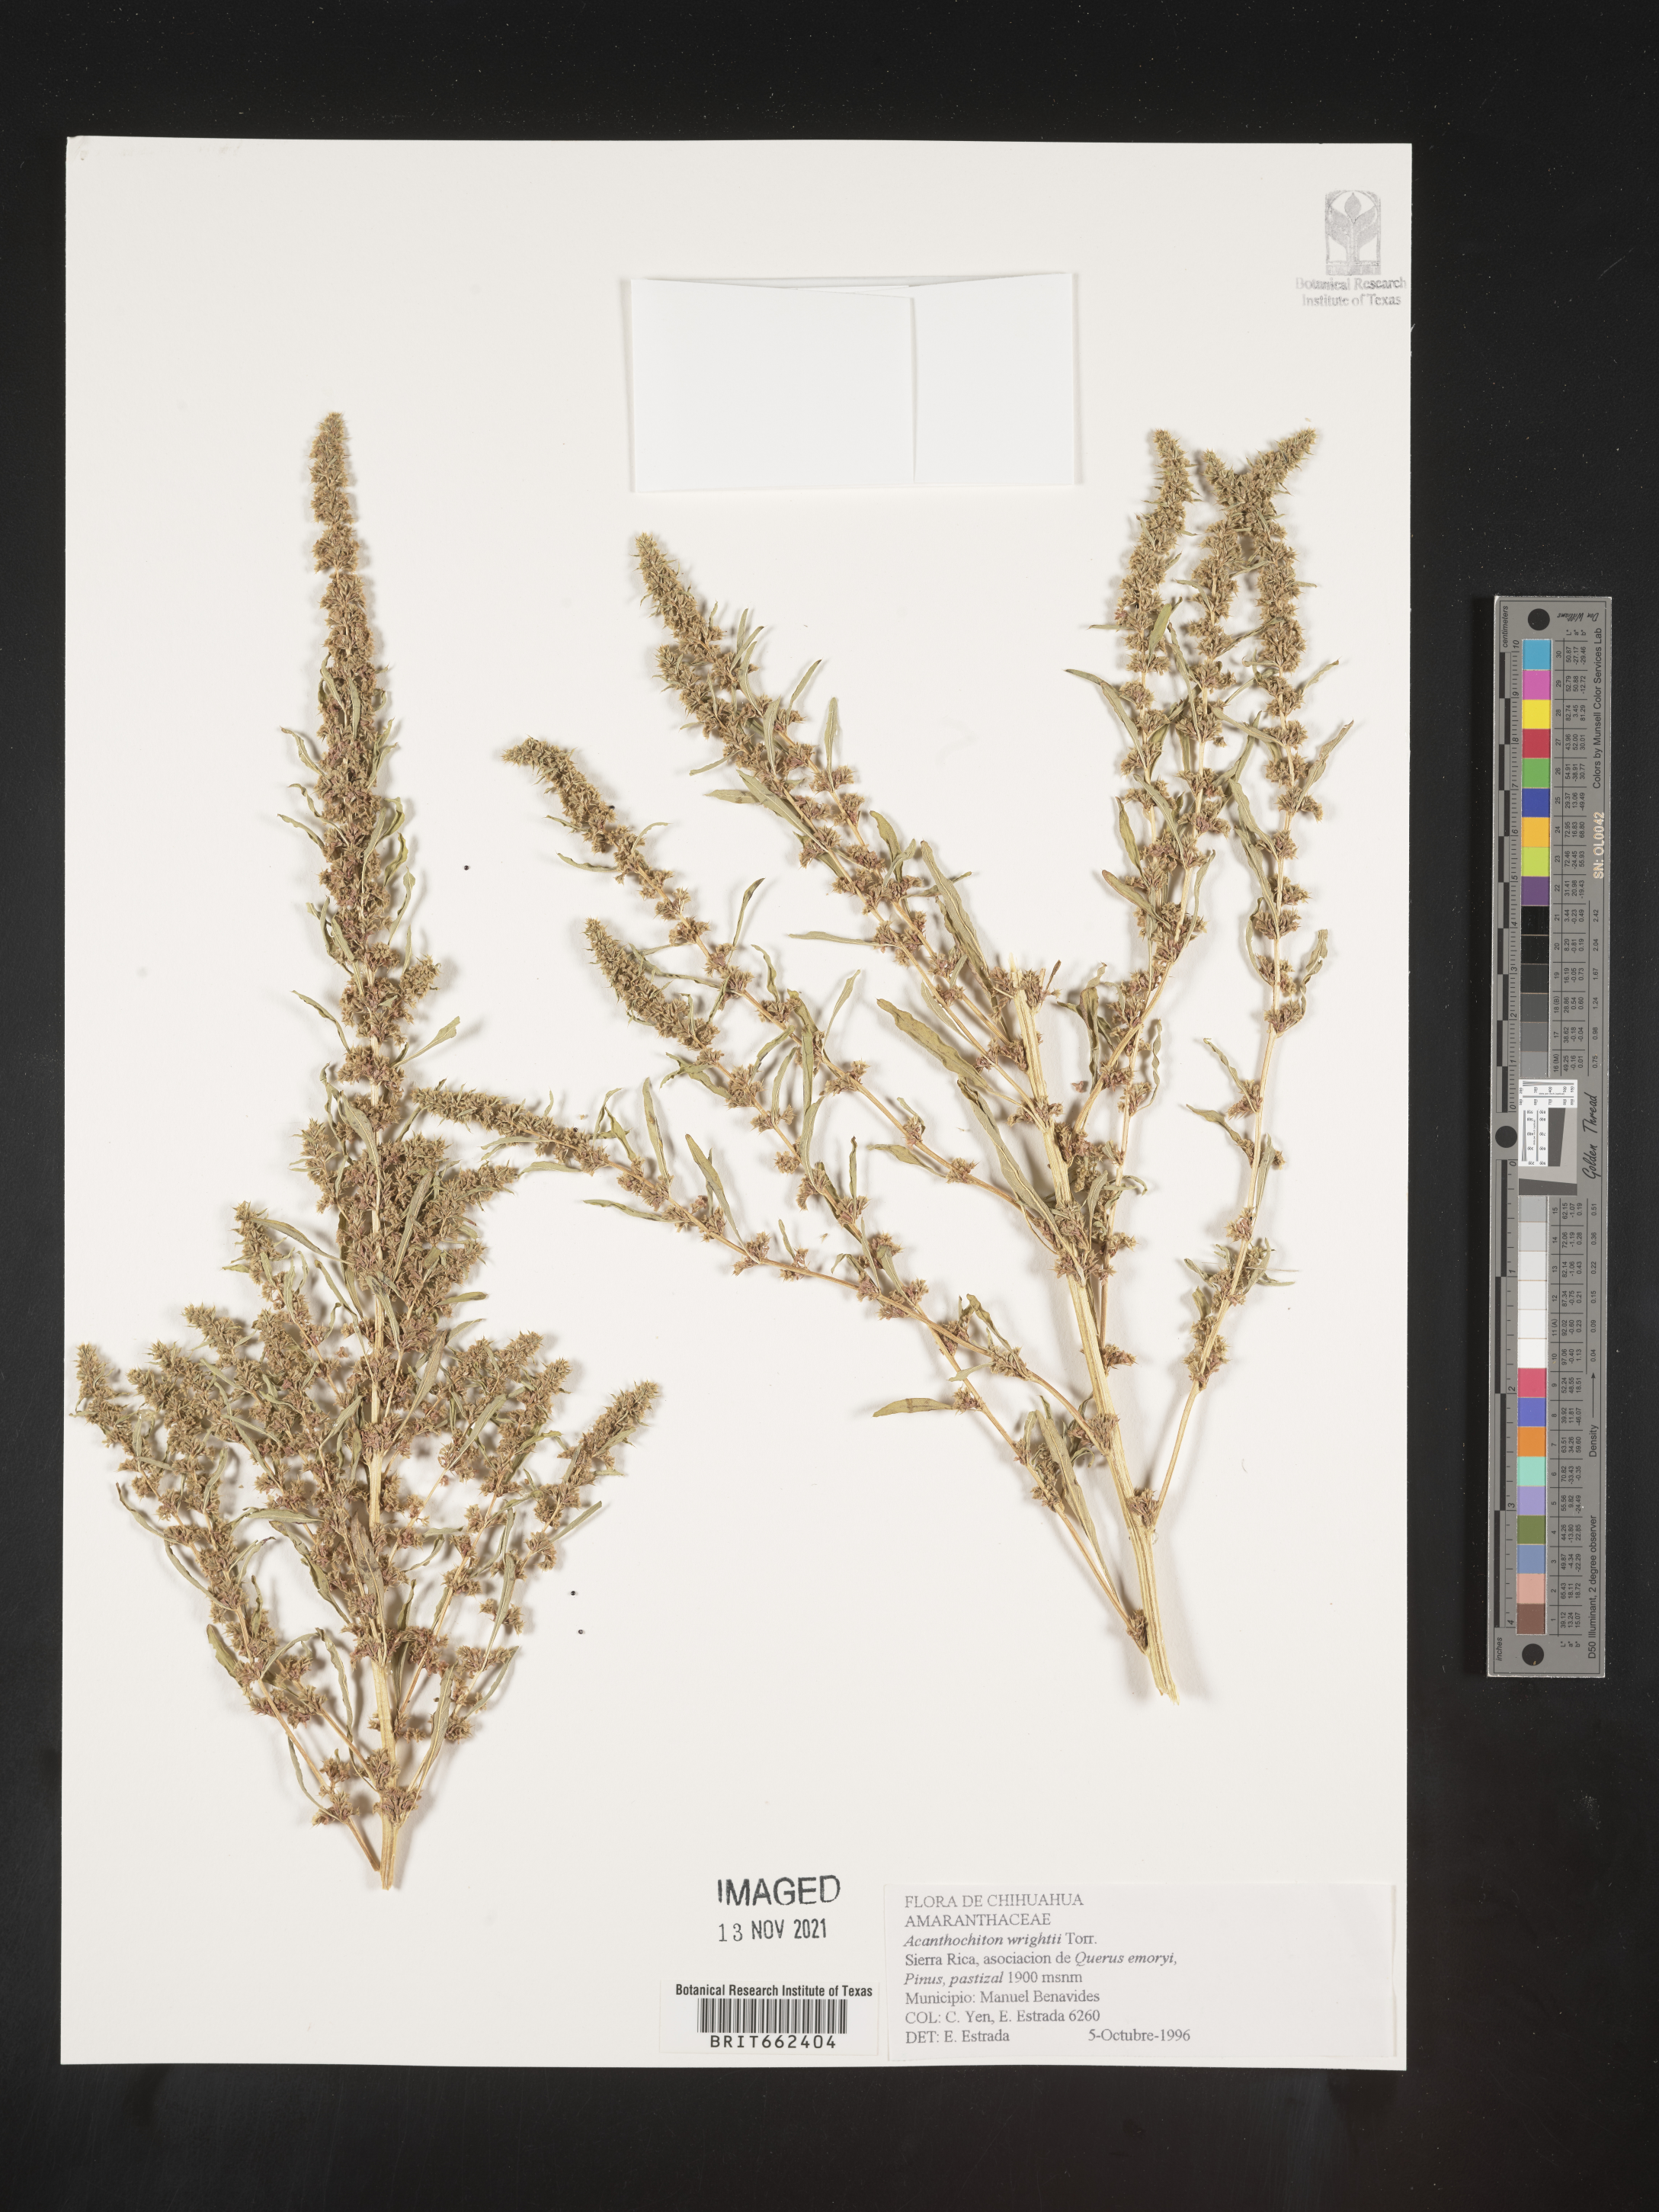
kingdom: Plantae
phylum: Tracheophyta
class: Magnoliopsida
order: Caryophyllales
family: Amaranthaceae
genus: Amaranthus
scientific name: Amaranthus
